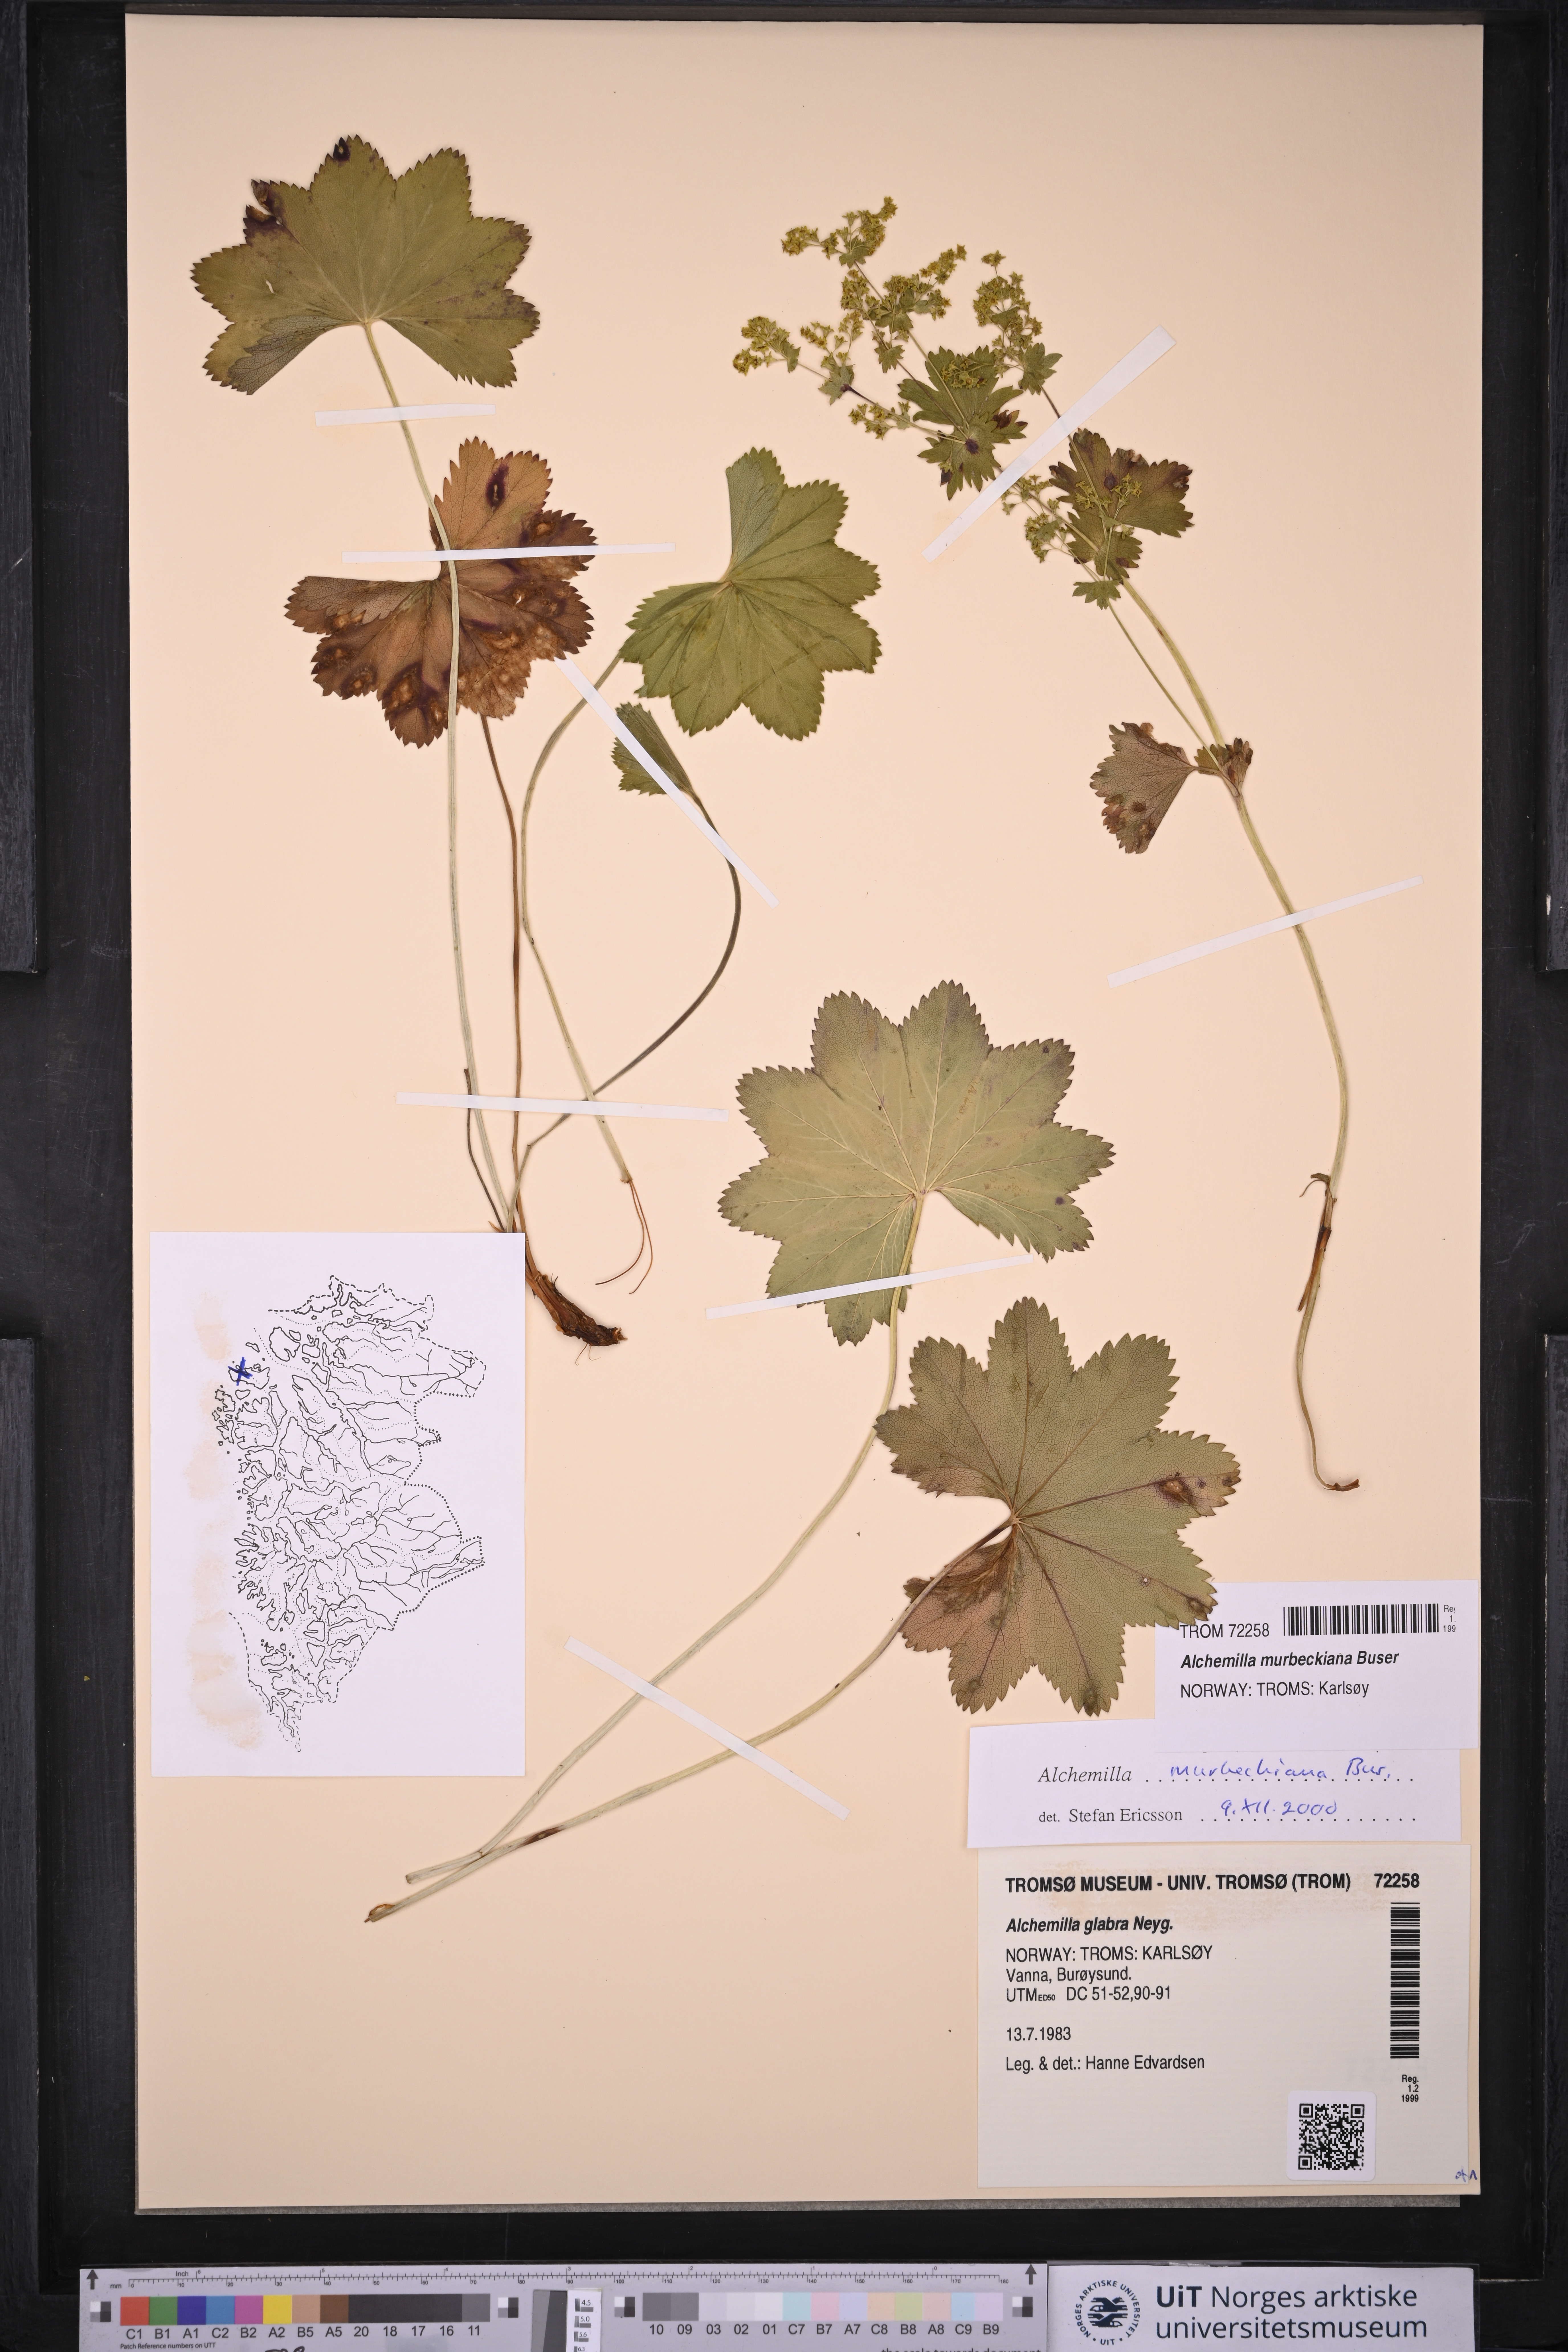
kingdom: Plantae
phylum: Tracheophyta
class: Magnoliopsida
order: Rosales
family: Rosaceae
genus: Alchemilla
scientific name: Alchemilla murbeckiana
